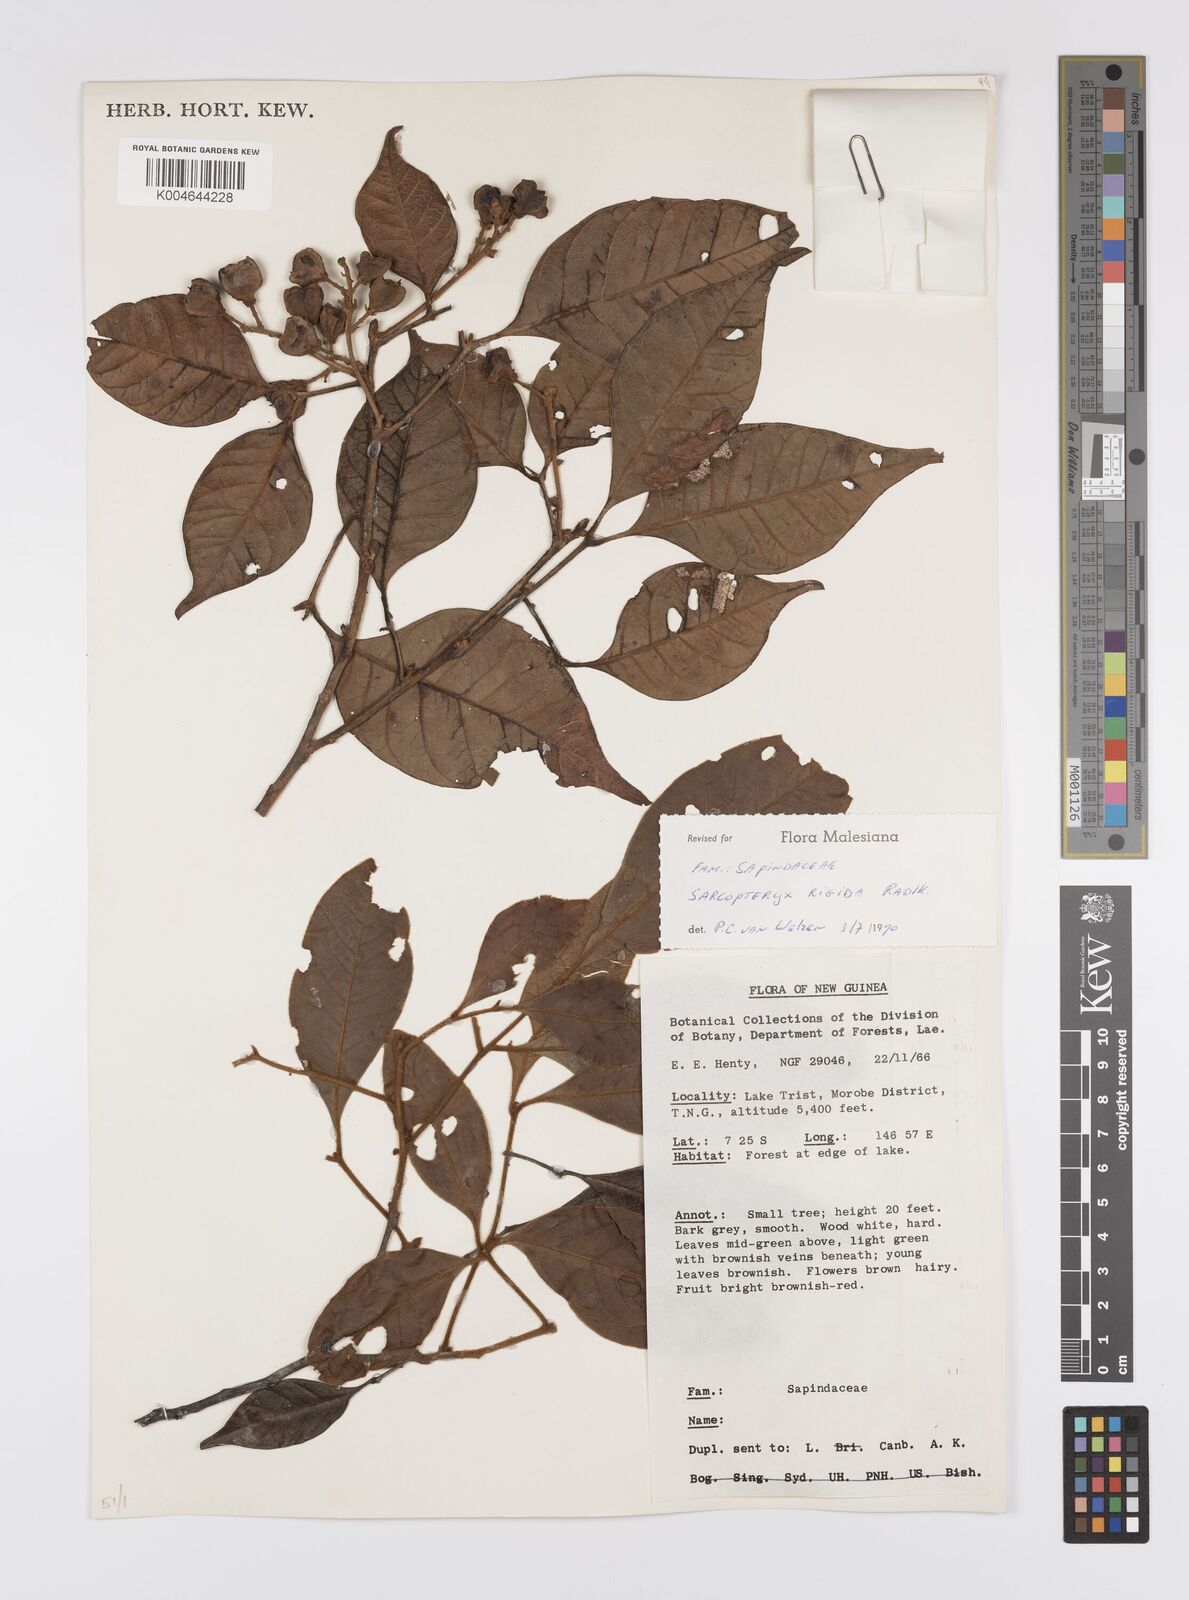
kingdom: Plantae
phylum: Tracheophyta
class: Magnoliopsida
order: Sapindales
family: Sapindaceae
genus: Sarcopteryx
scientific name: Sarcopteryx rigida
